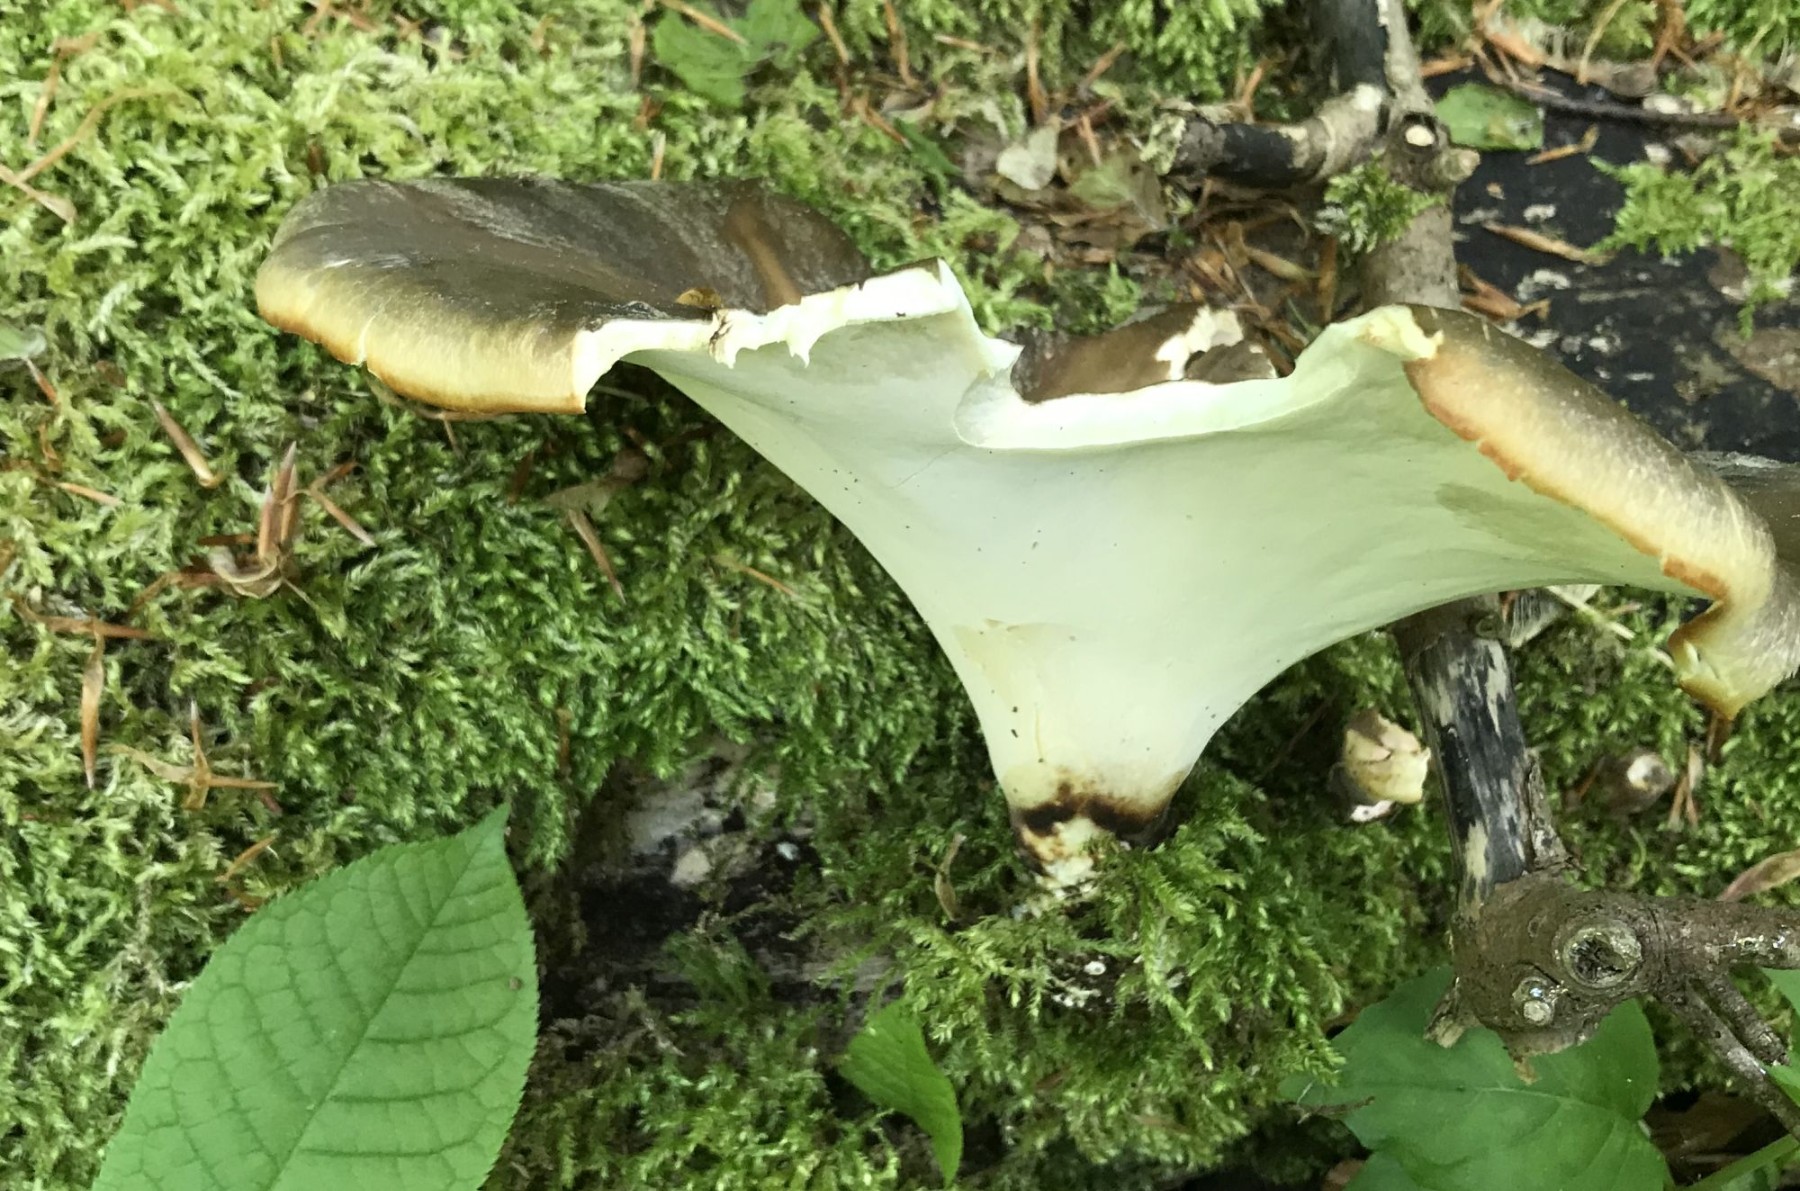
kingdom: Fungi
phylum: Basidiomycota
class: Agaricomycetes
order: Polyporales
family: Polyporaceae
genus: Picipes
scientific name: Picipes badius
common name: kastaniebrun stilkporesvamp
